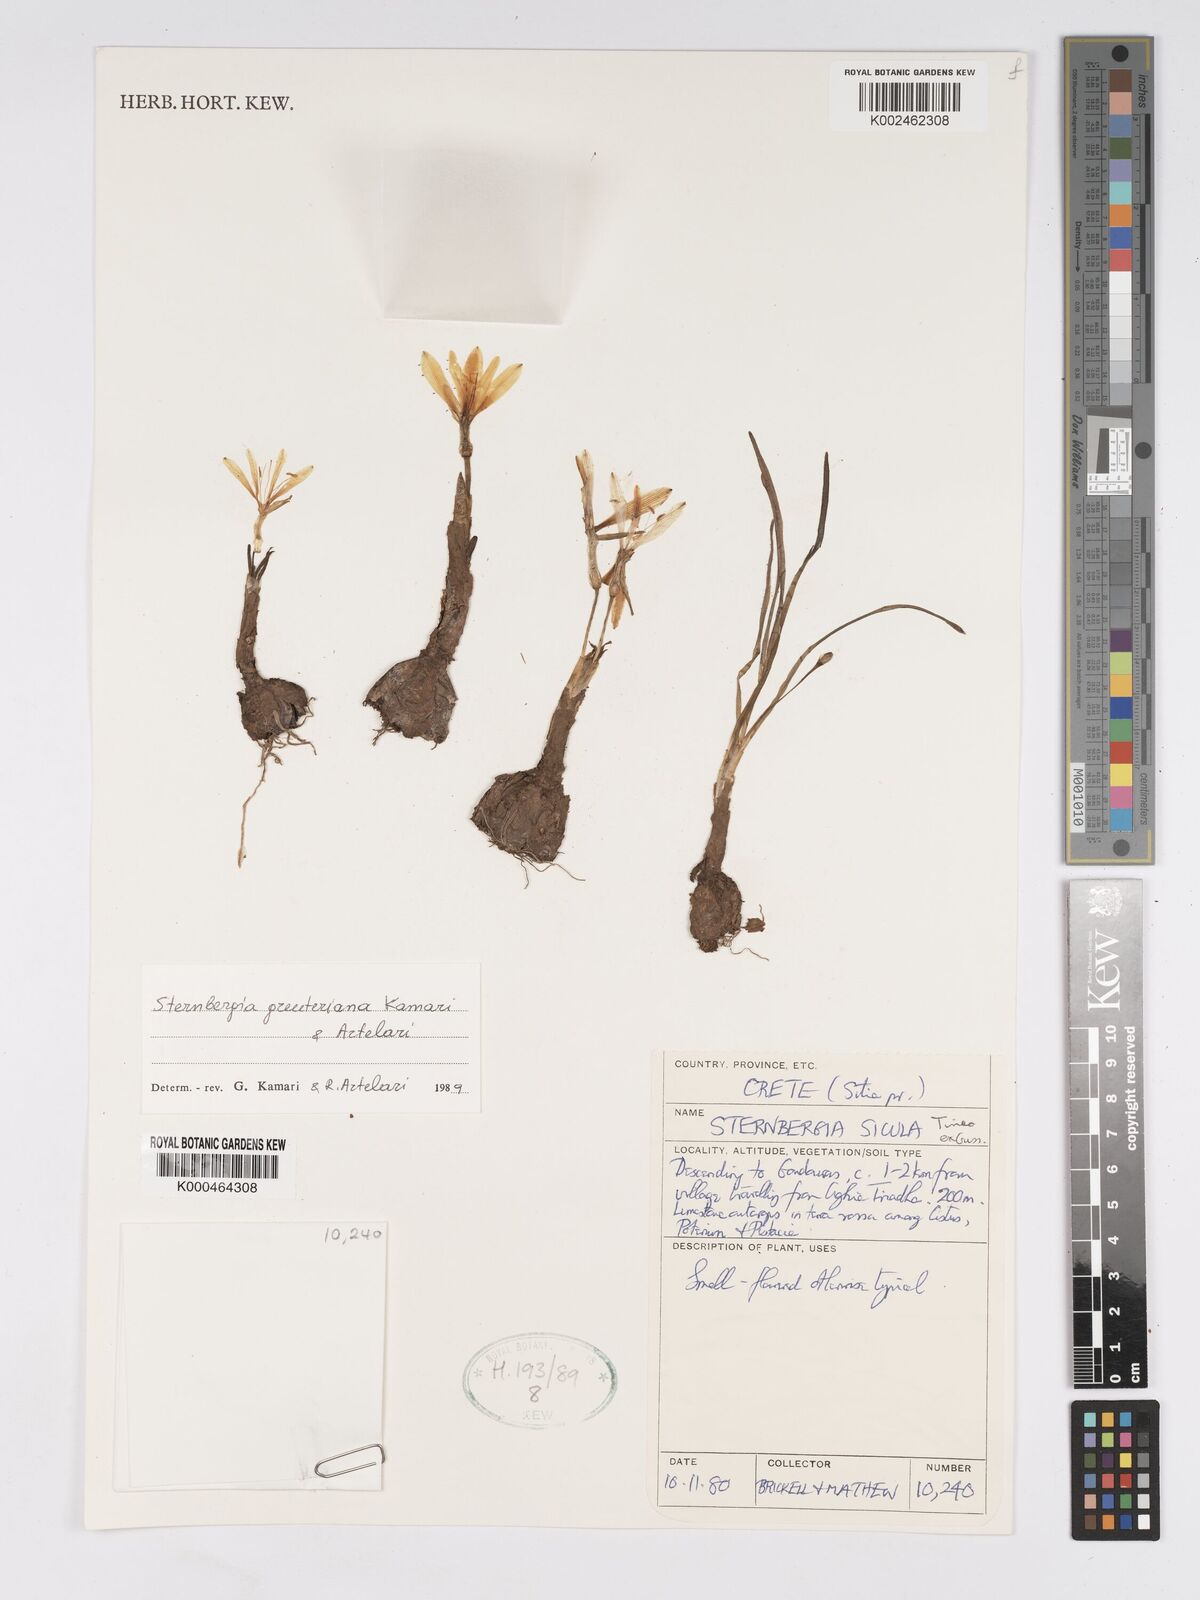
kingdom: Plantae
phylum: Tracheophyta
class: Liliopsida
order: Asparagales
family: Amaryllidaceae
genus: Sternbergia
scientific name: Sternbergia lutea
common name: Winter daffodil
